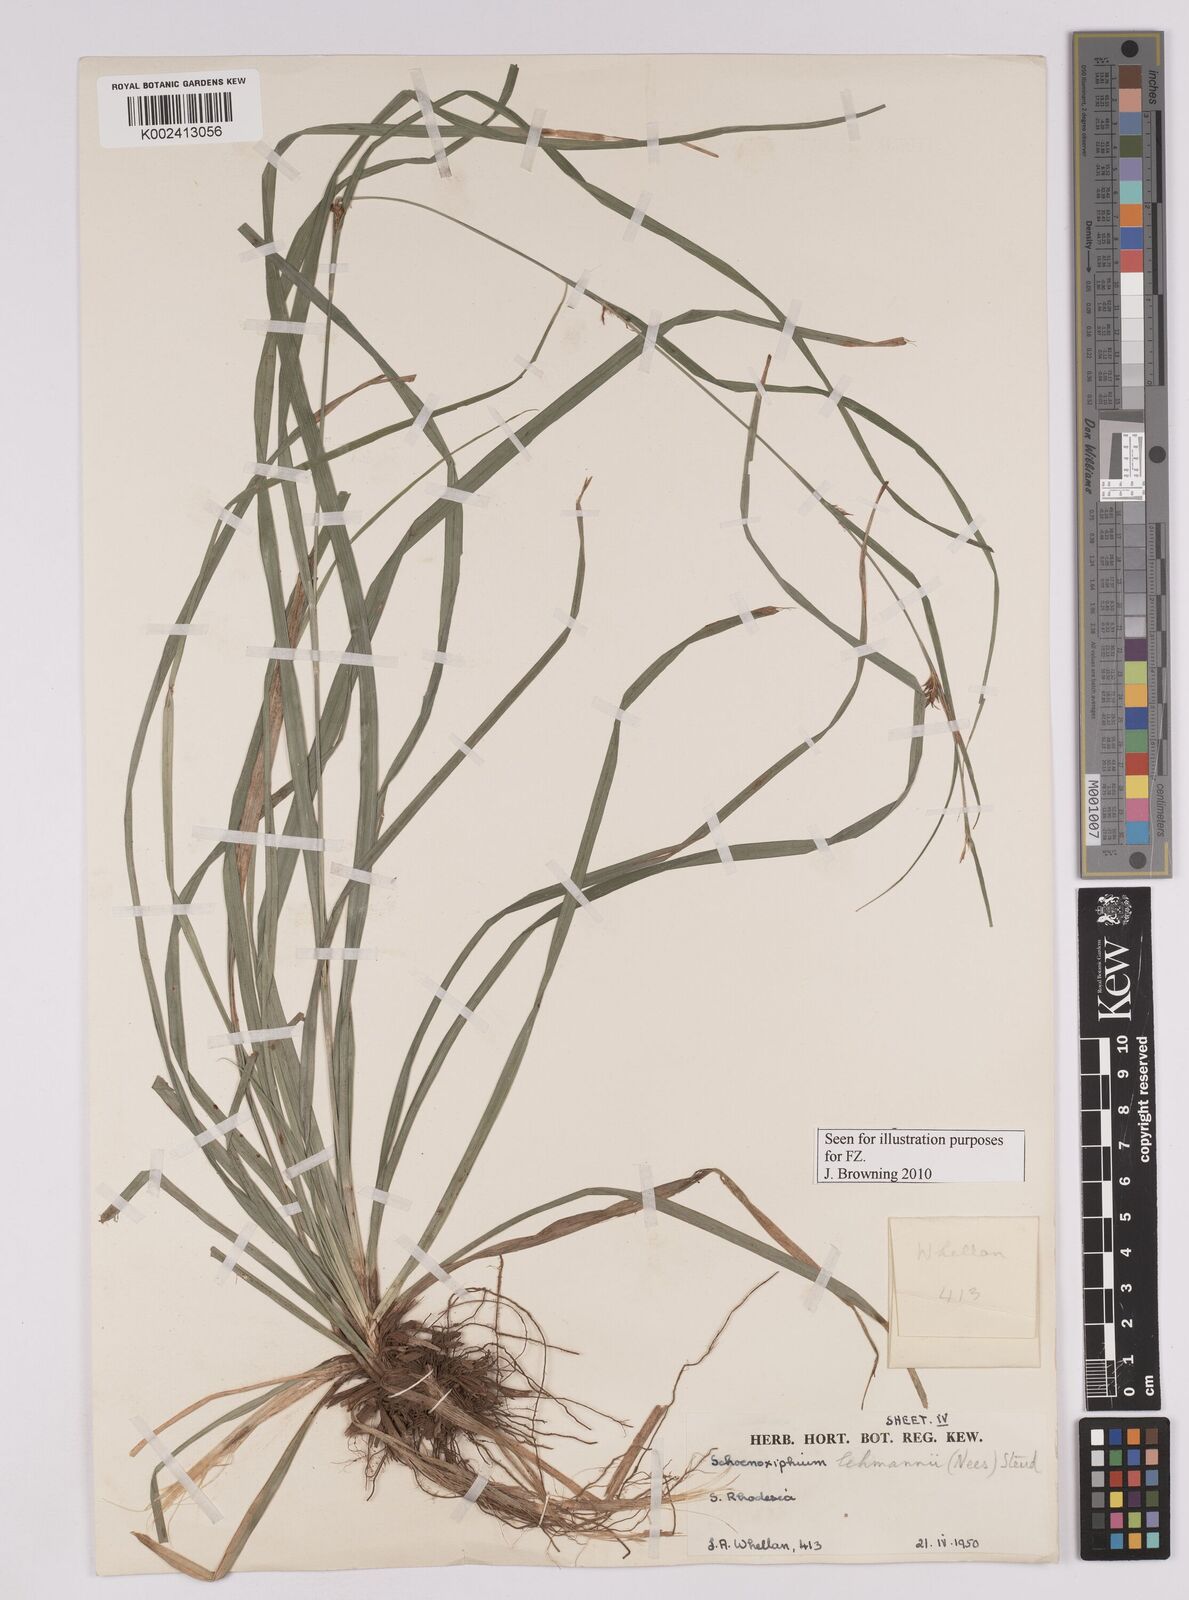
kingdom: Plantae
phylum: Tracheophyta
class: Liliopsida
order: Poales
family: Cyperaceae
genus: Carex
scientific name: Carex uhligii
